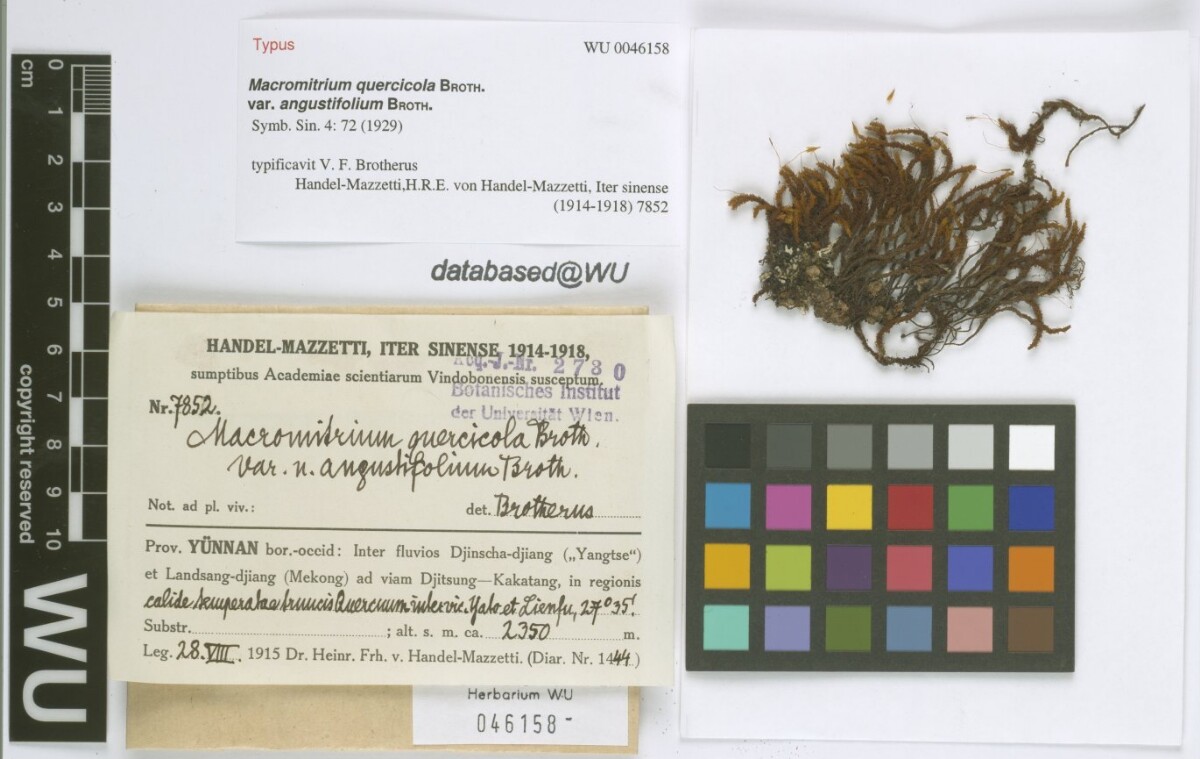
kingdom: Plantae
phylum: Bryophyta
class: Bryopsida
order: Orthotrichales
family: Orthotrichaceae
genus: Macromitrium
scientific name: Macromitrium ferriei
